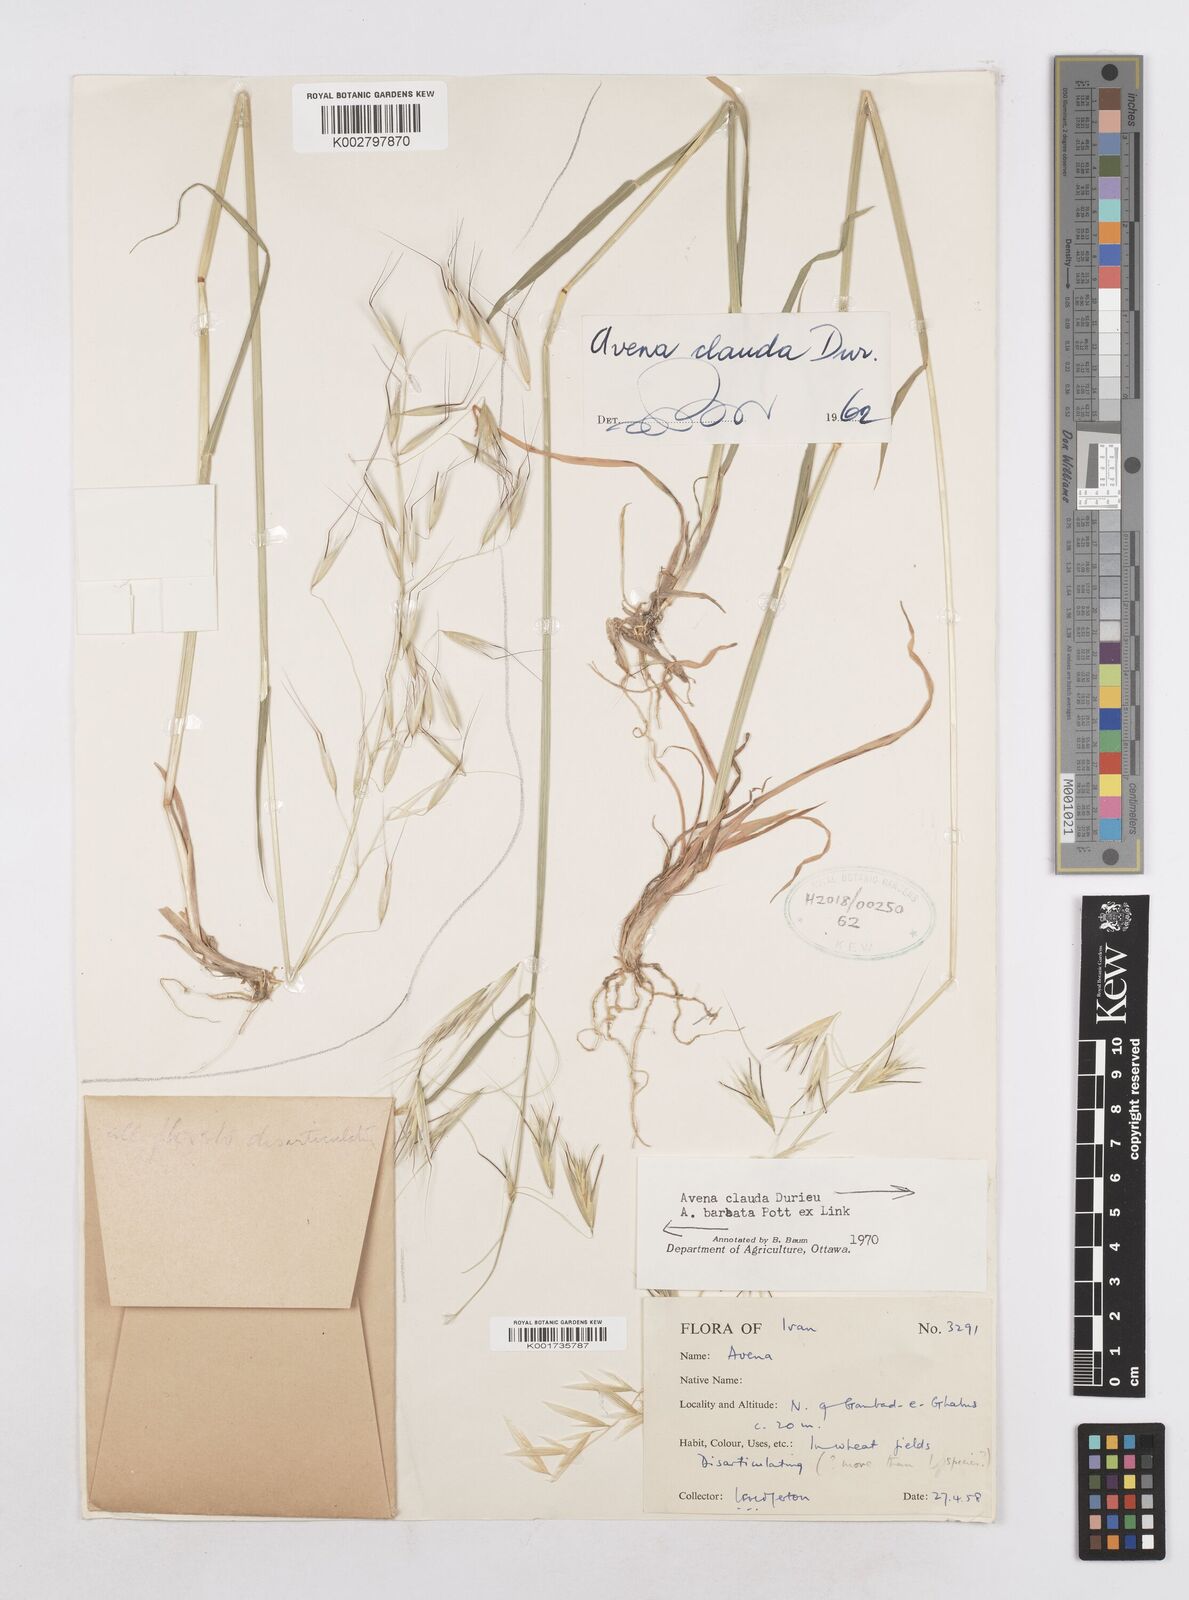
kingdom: Plantae
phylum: Tracheophyta
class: Liliopsida
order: Poales
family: Poaceae
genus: Avena
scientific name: Avena clauda
